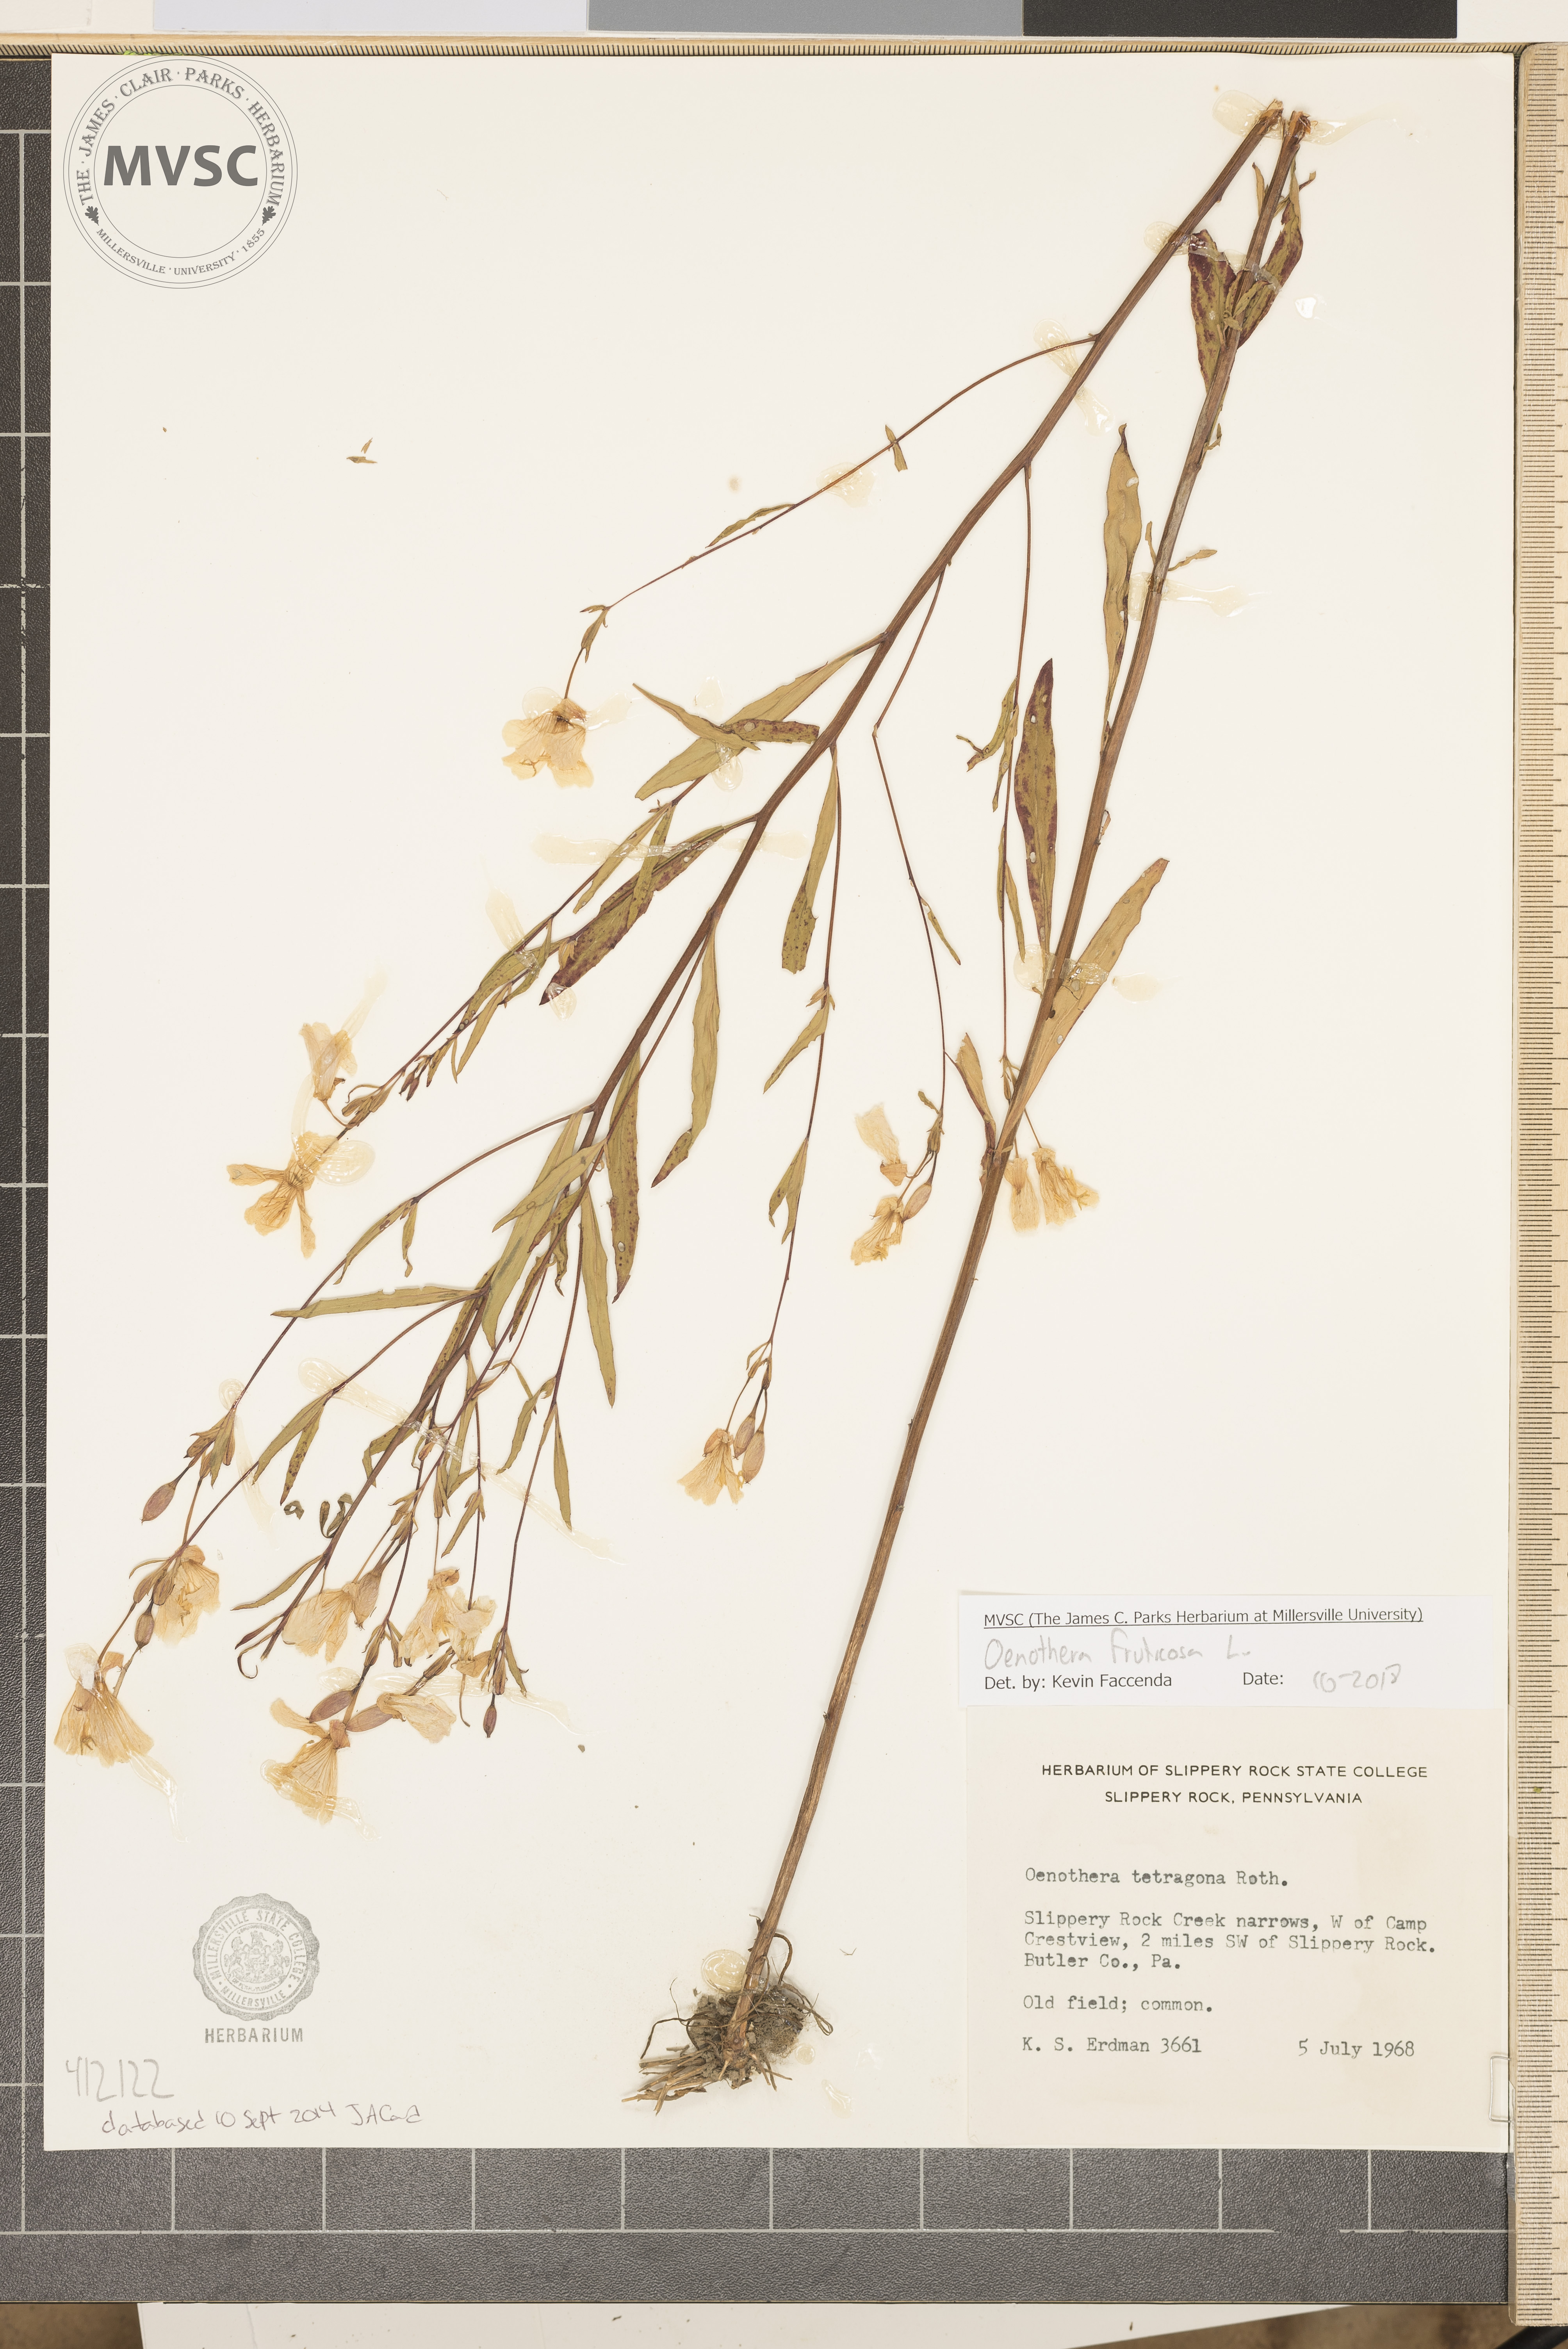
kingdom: Plantae
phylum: Tracheophyta
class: Magnoliopsida
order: Myrtales
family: Onagraceae
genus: Oenothera
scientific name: Oenothera fruticosa
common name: Southern sundrops
